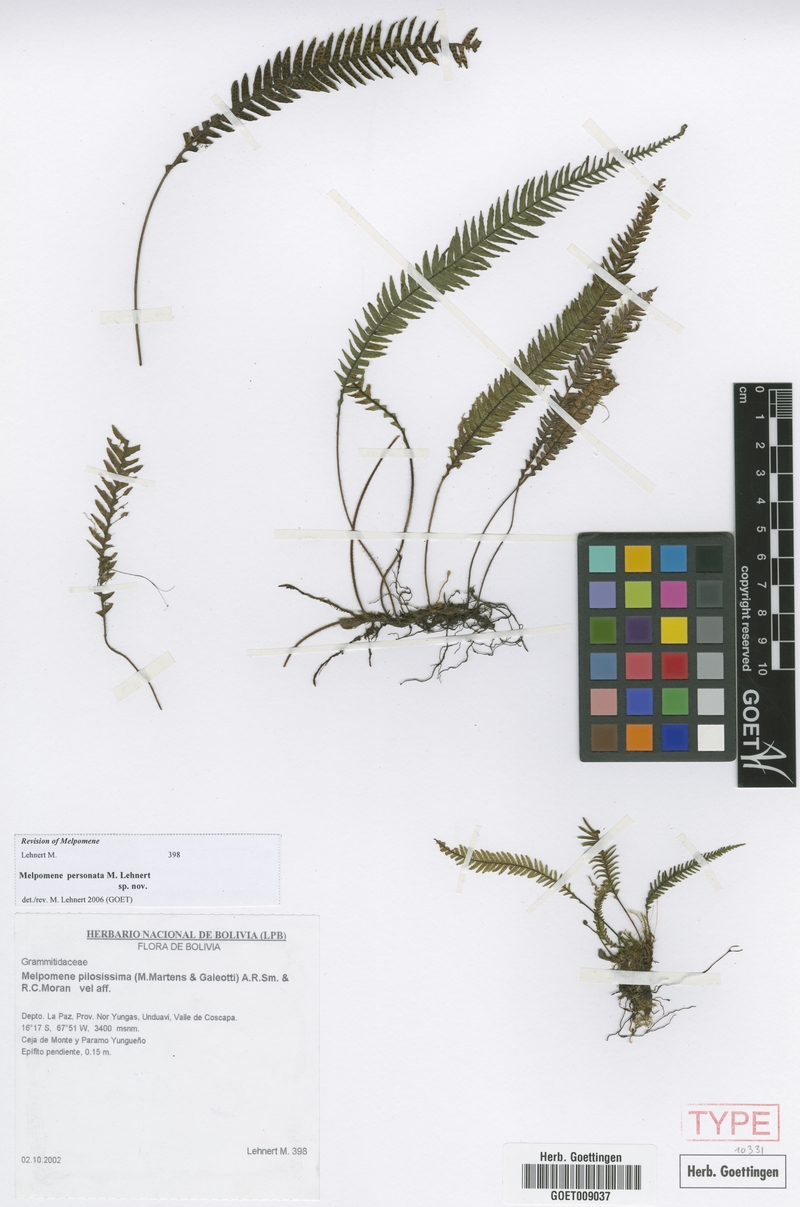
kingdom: Plantae
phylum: Tracheophyta
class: Polypodiopsida
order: Polypodiales
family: Polypodiaceae
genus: Melpomene
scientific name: Melpomene personata
